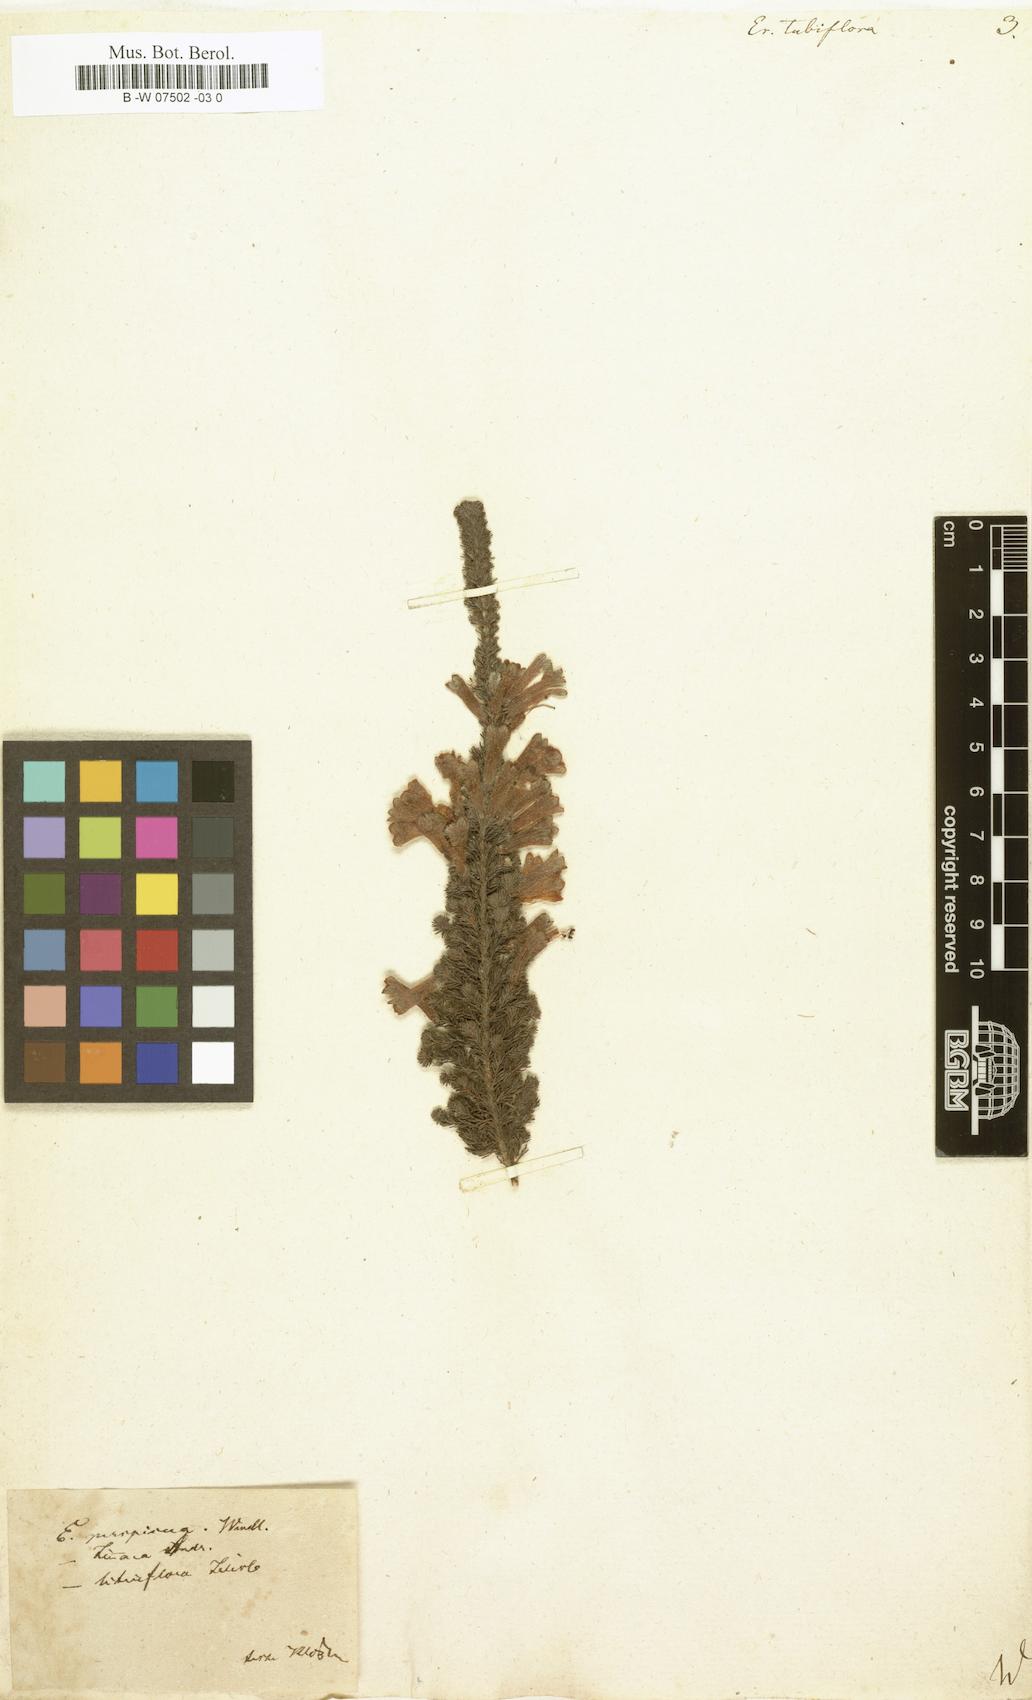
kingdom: Plantae
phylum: Tracheophyta
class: Magnoliopsida
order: Ericales
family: Ericaceae
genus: Erica
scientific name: Erica curviflora
